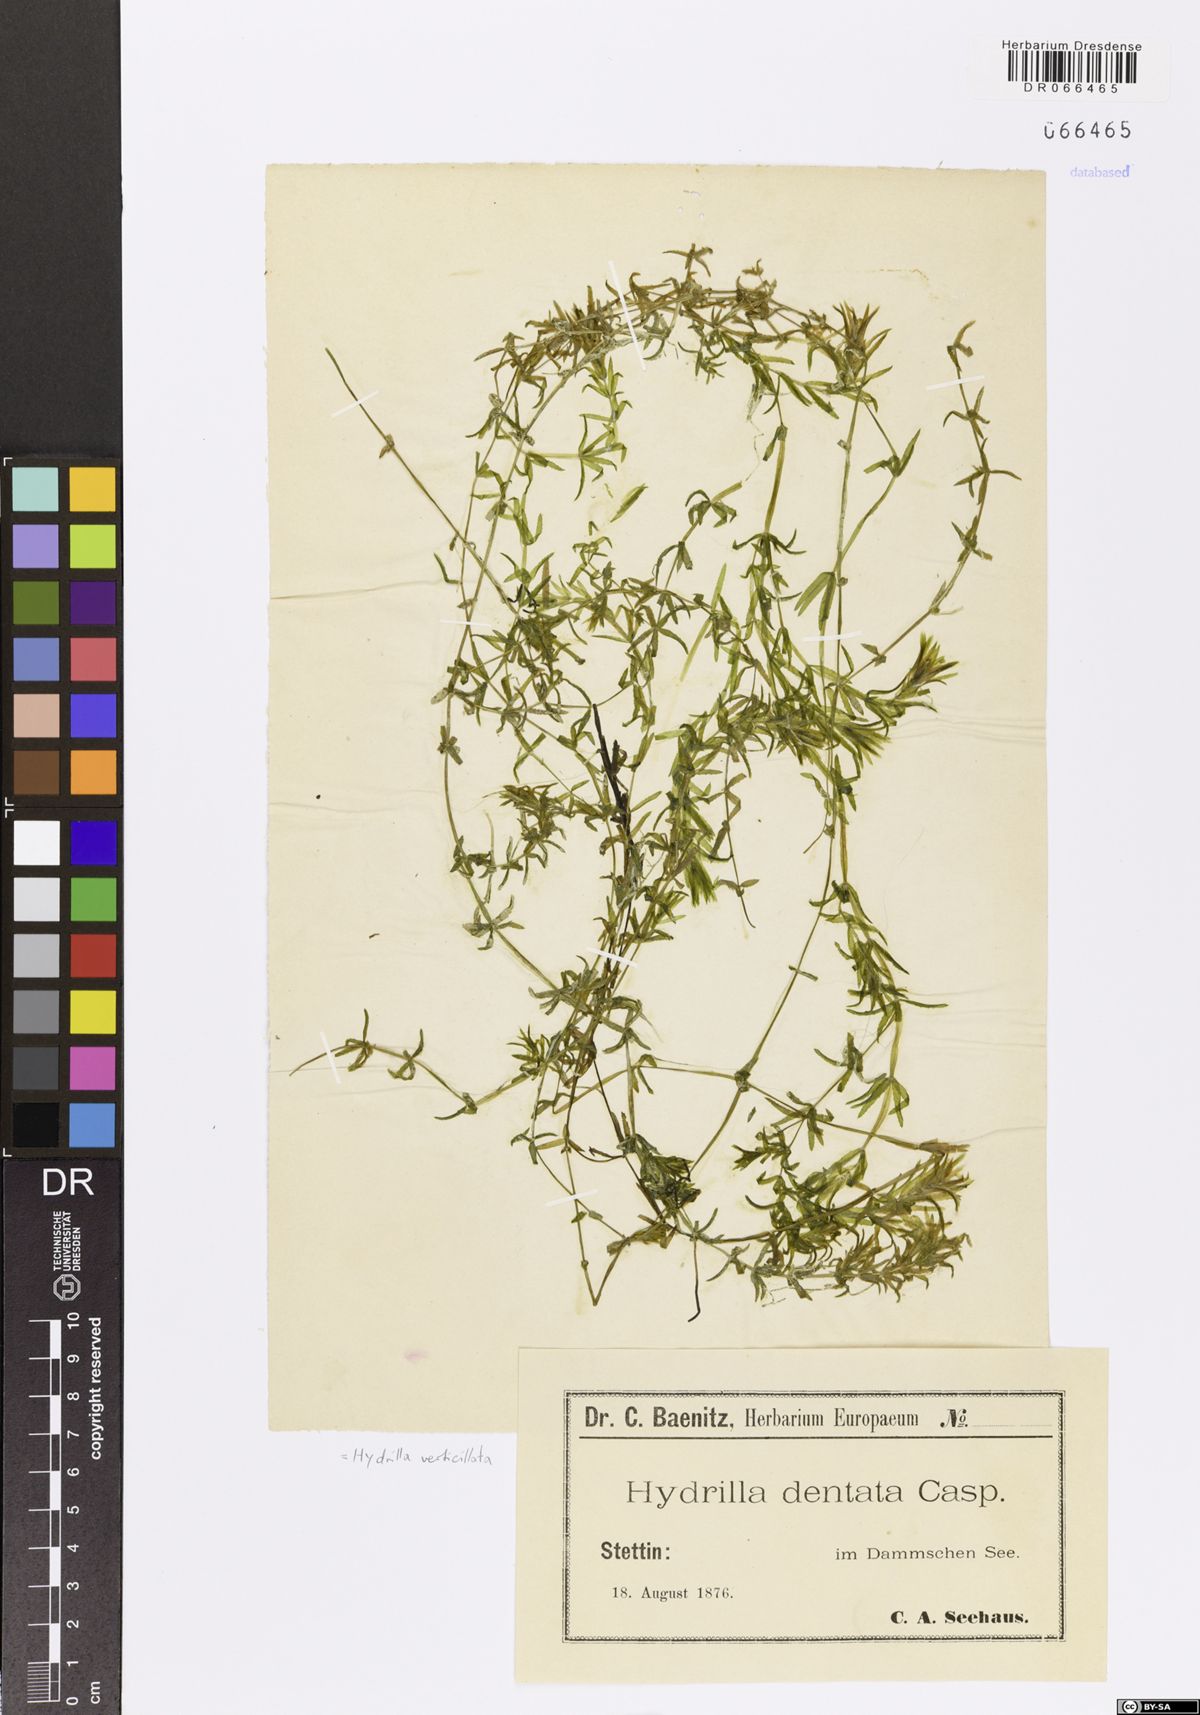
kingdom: Plantae
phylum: Tracheophyta
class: Liliopsida
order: Alismatales
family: Hydrocharitaceae
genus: Hydrilla
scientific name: Hydrilla verticillata
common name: Florida-elodea
